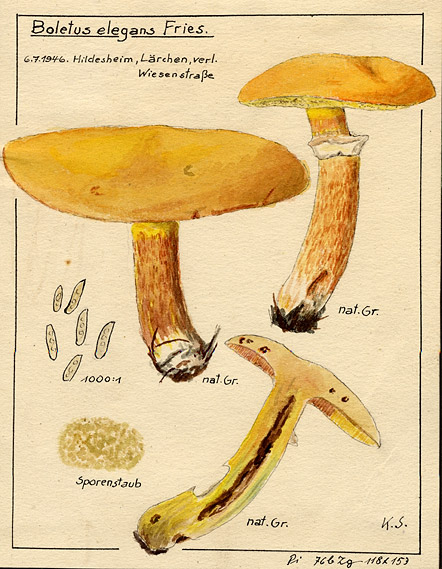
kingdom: Fungi
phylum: Basidiomycota
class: Agaricomycetes
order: Boletales
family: Suillaceae
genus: Suillus
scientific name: Suillus grevillei
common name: Larch bolete
